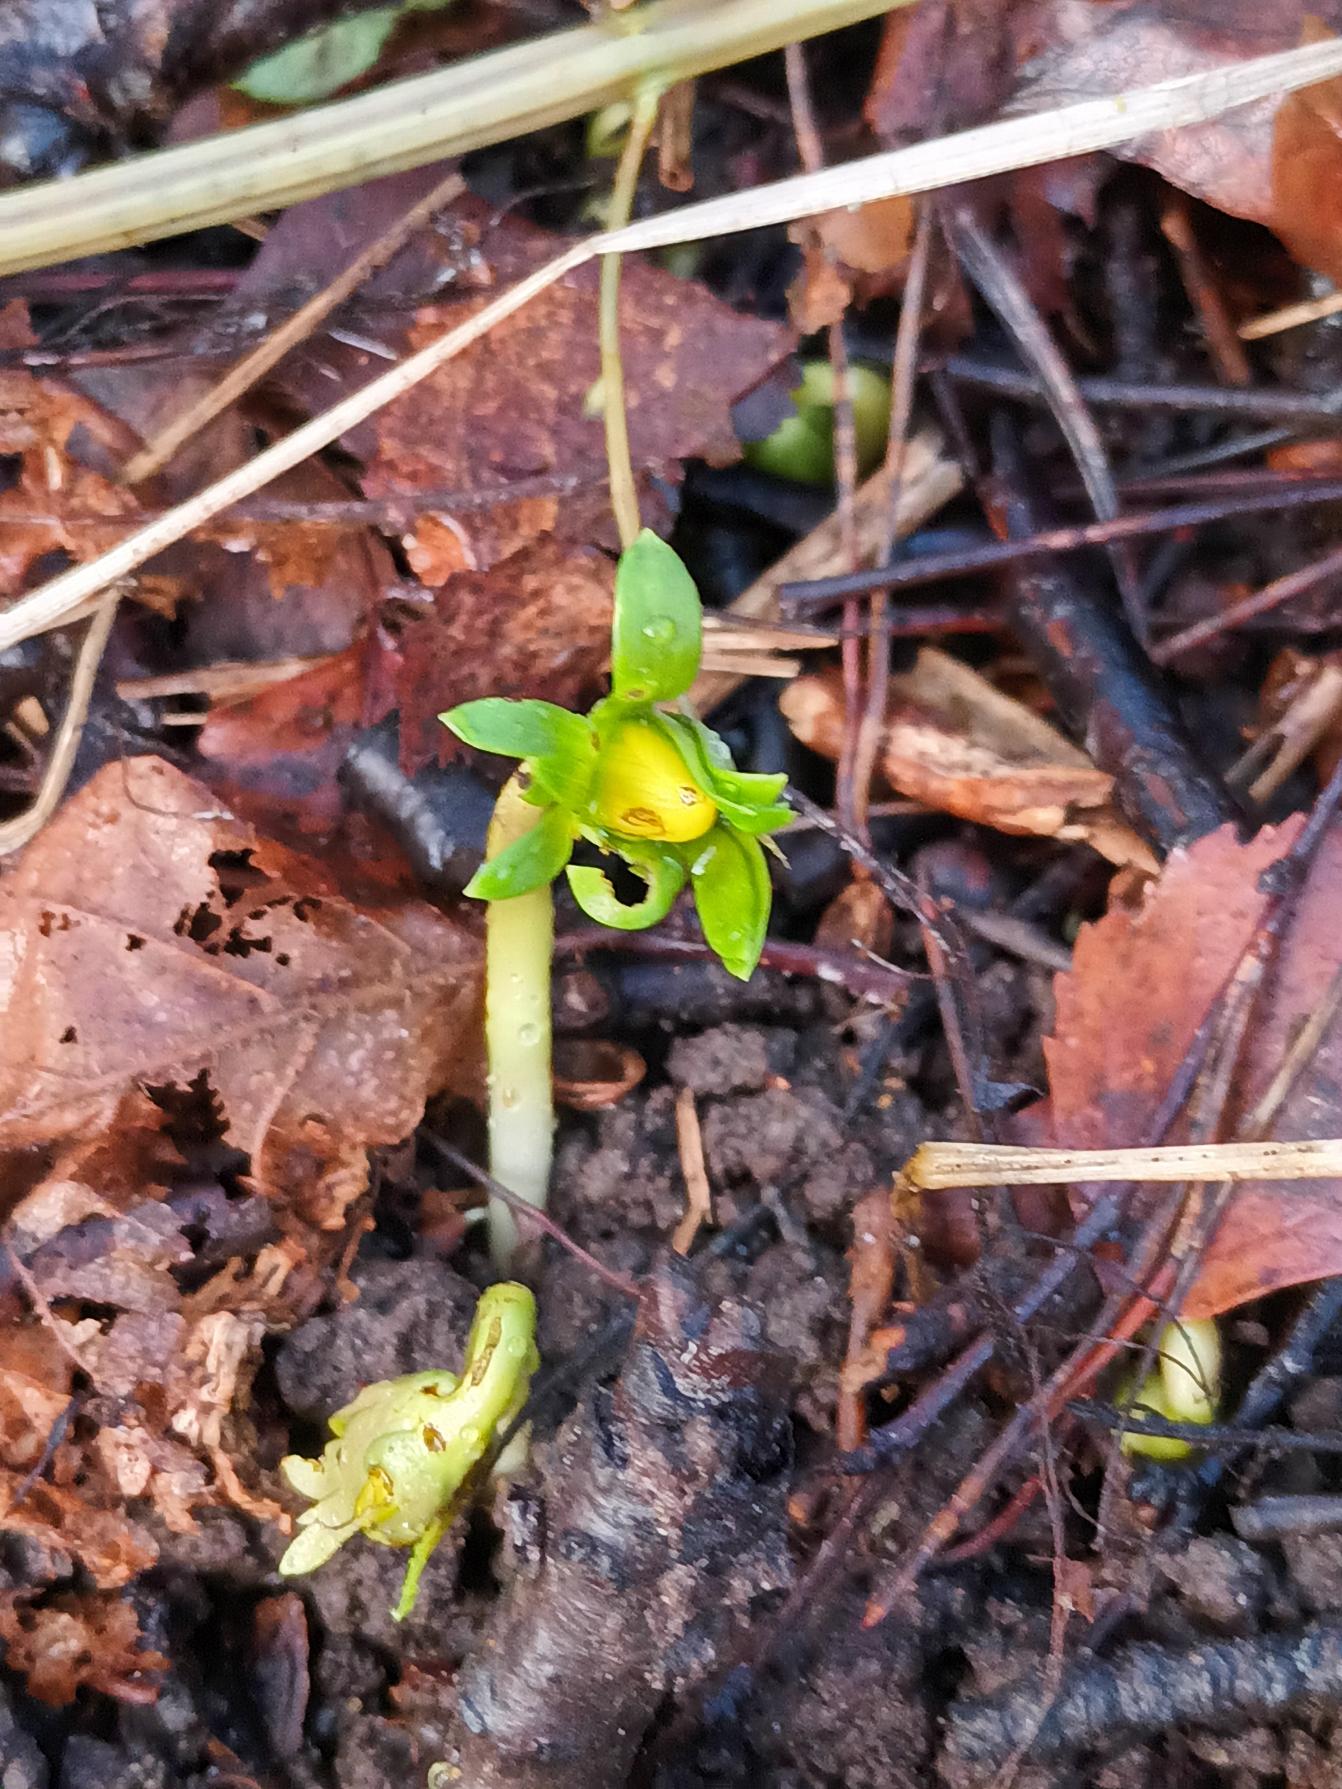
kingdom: Plantae
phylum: Tracheophyta
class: Magnoliopsida
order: Ranunculales
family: Ranunculaceae
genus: Eranthis
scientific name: Eranthis hyemalis
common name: Erantis
